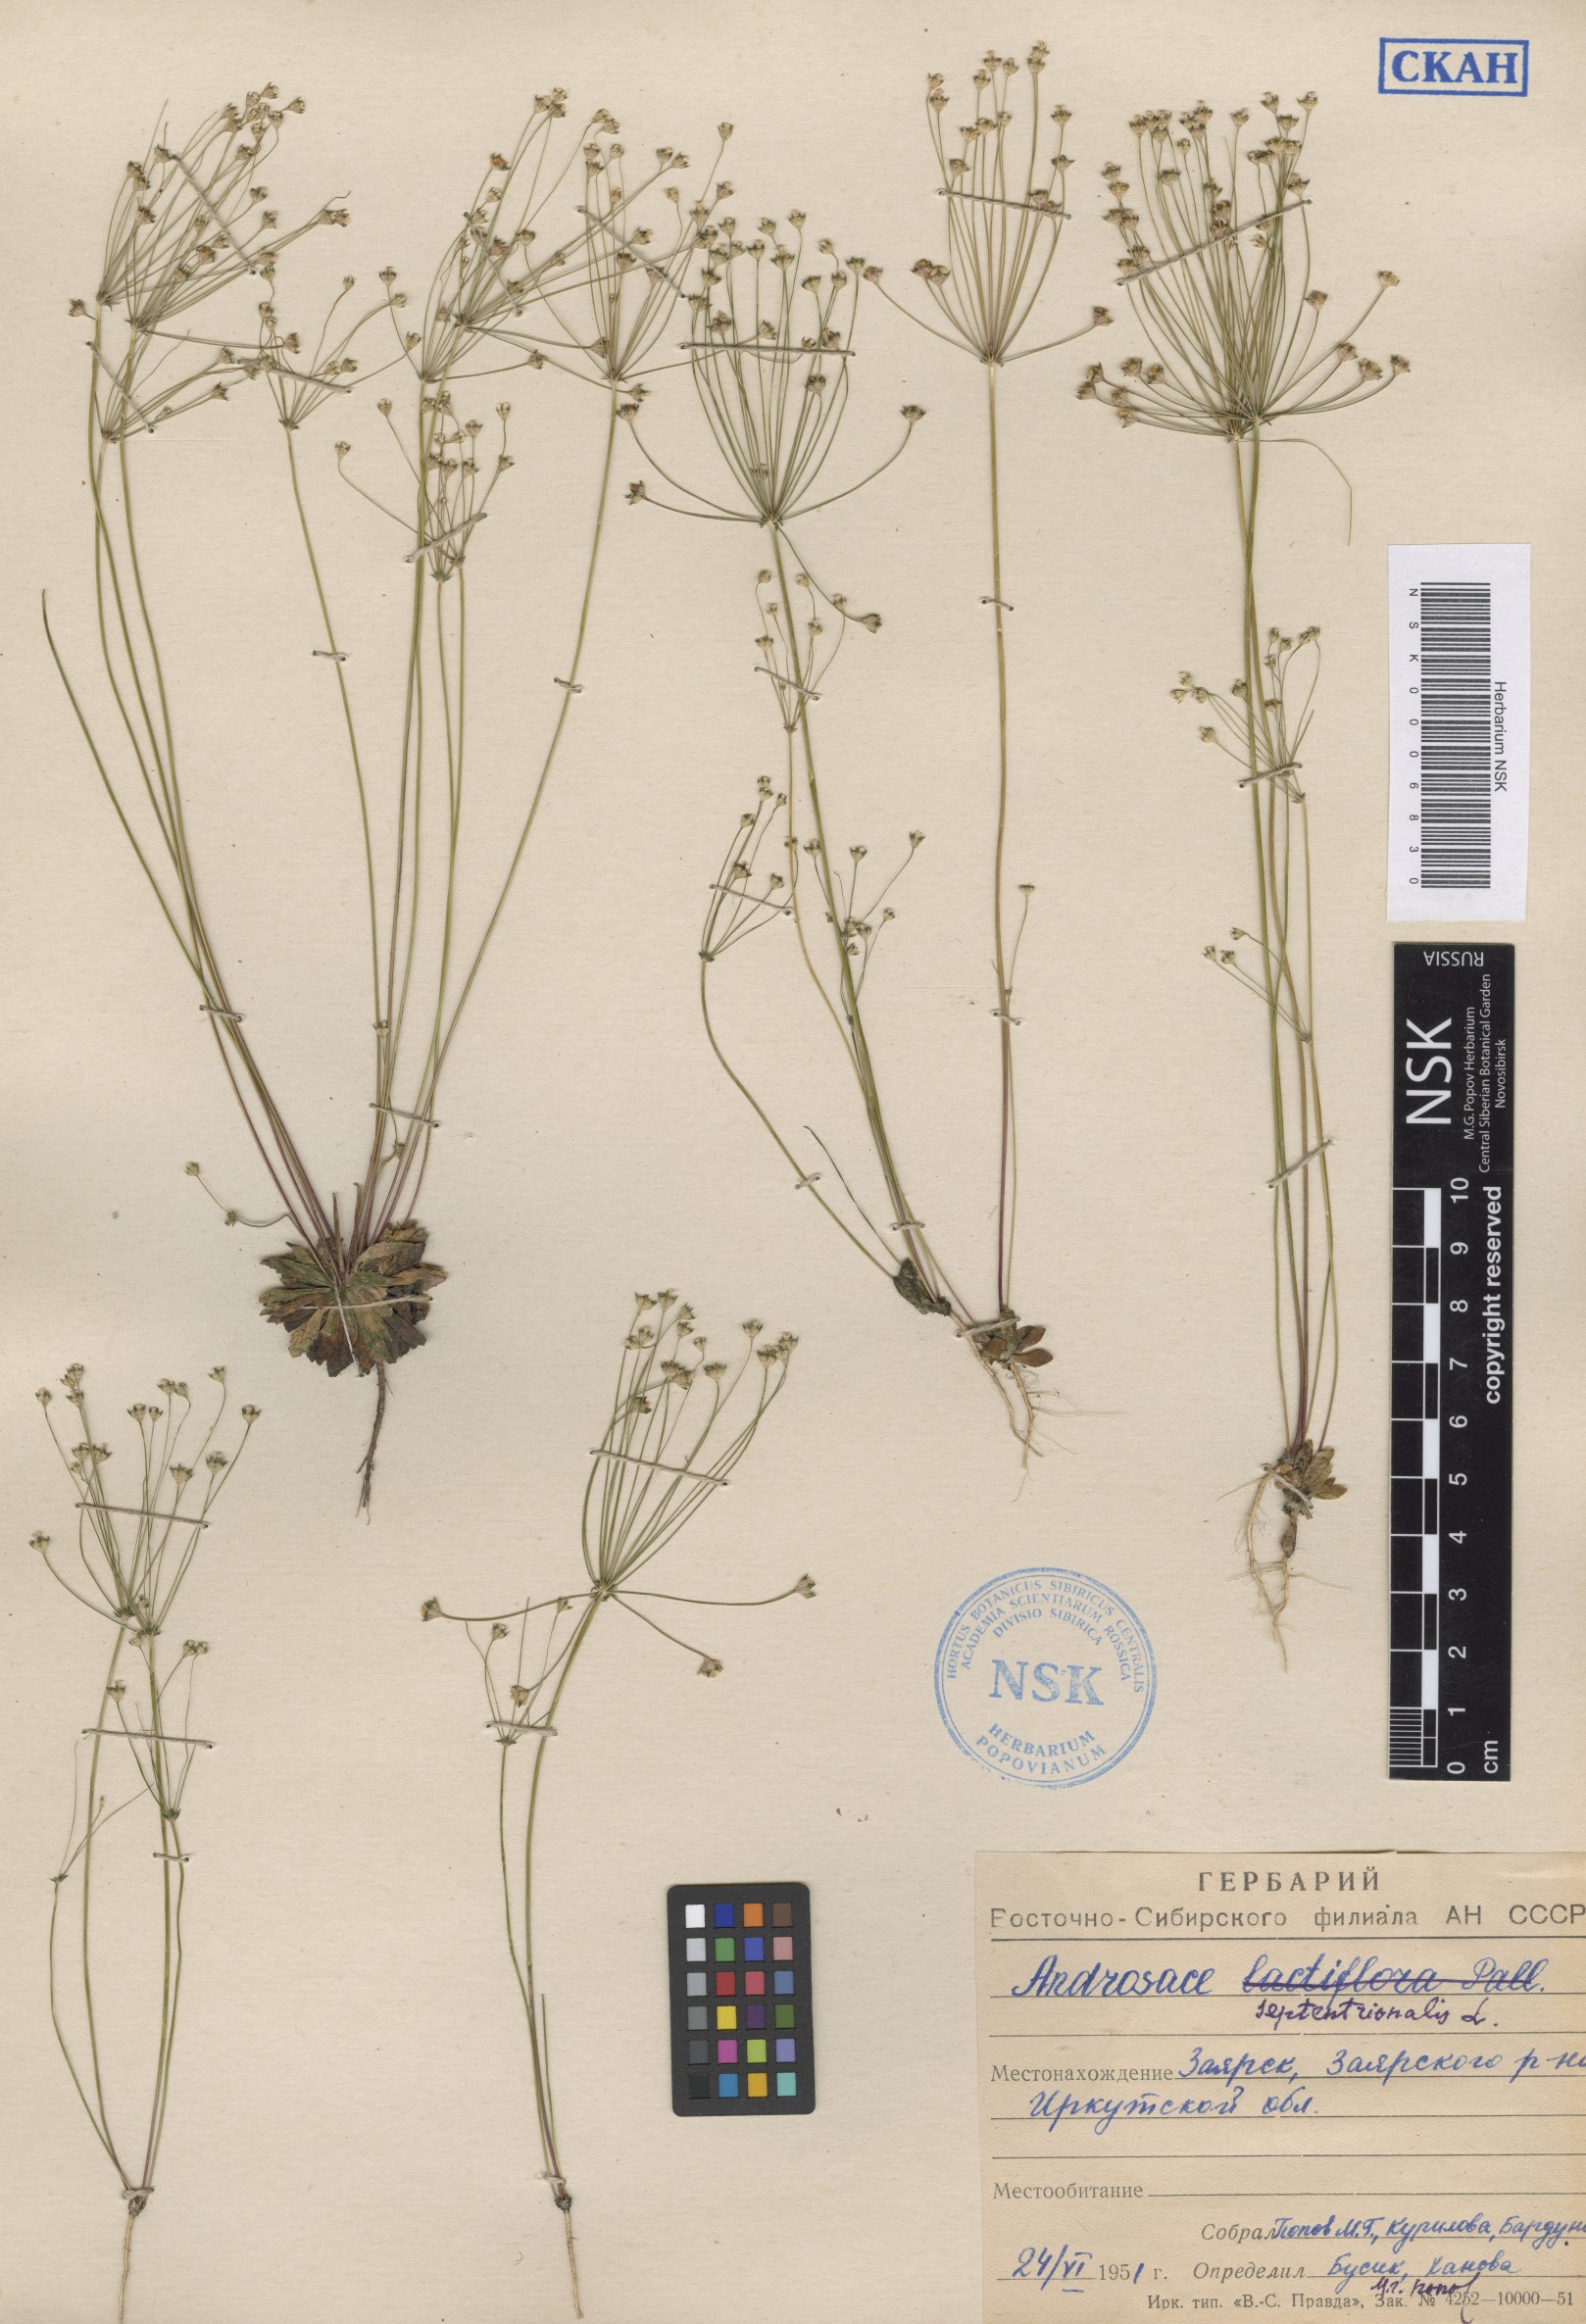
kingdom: Plantae
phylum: Tracheophyta
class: Magnoliopsida
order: Ericales
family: Primulaceae
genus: Androsace
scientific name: Androsace septentrionalis
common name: Hairy northern fairy-candelabra
